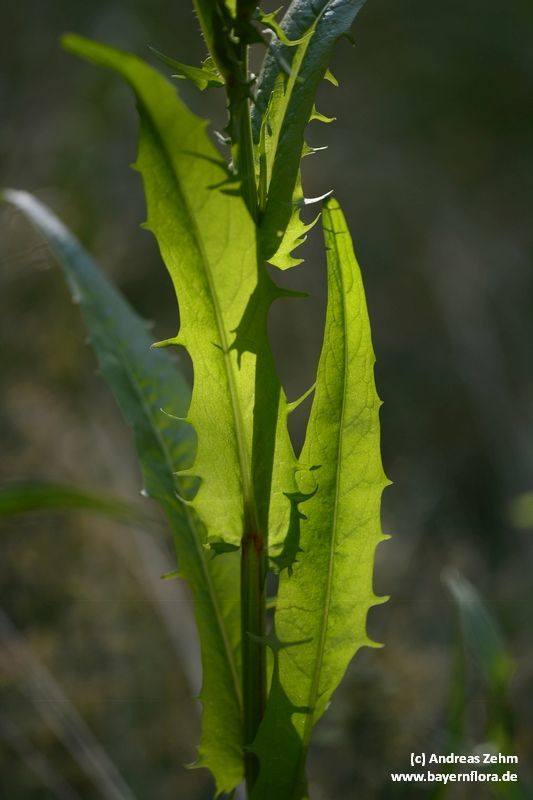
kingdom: Plantae
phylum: Tracheophyta
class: Magnoliopsida
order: Asterales
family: Asteraceae
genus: Crepis
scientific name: Crepis biennis
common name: Rough hawk's-beard
